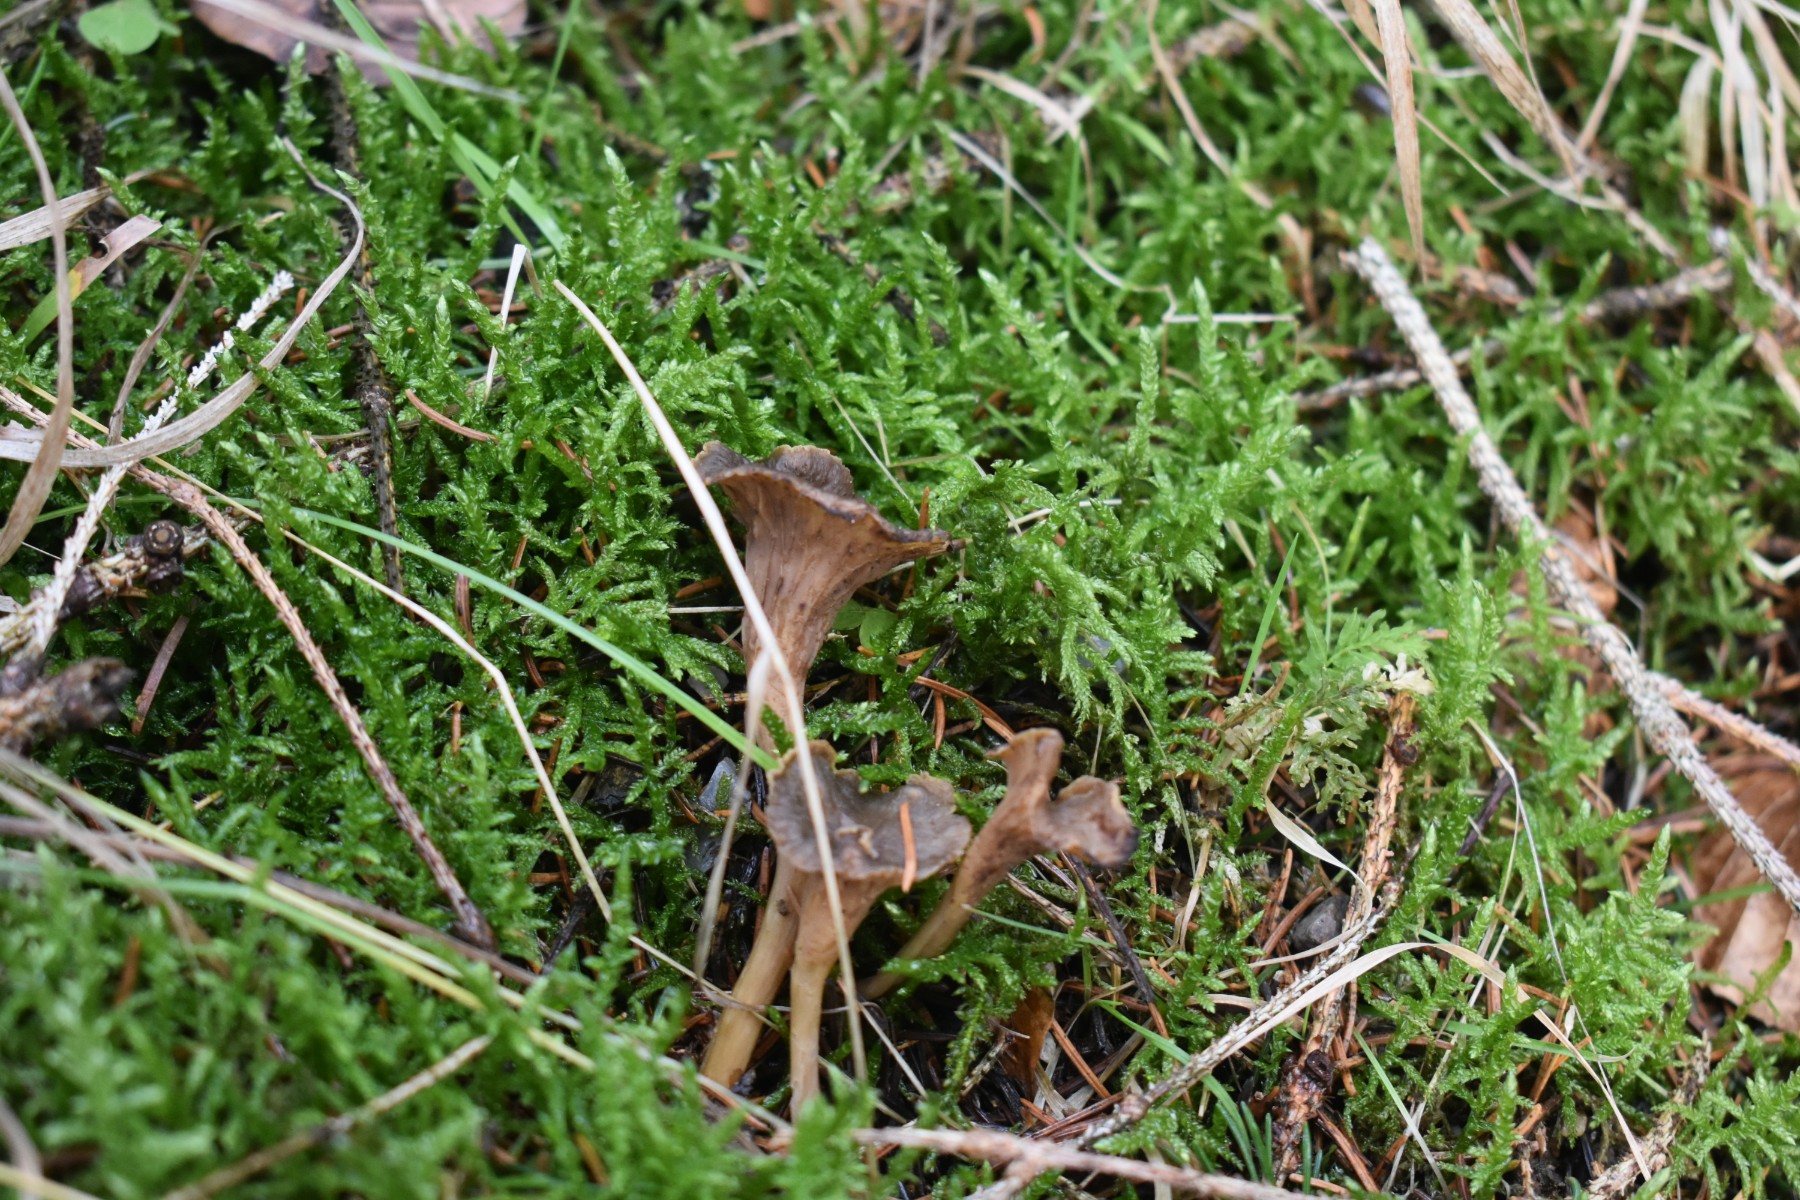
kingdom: Fungi
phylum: Basidiomycota
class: Agaricomycetes
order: Cantharellales
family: Hydnaceae
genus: Craterellus
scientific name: Craterellus tubaeformis
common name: tragt-kantarel
